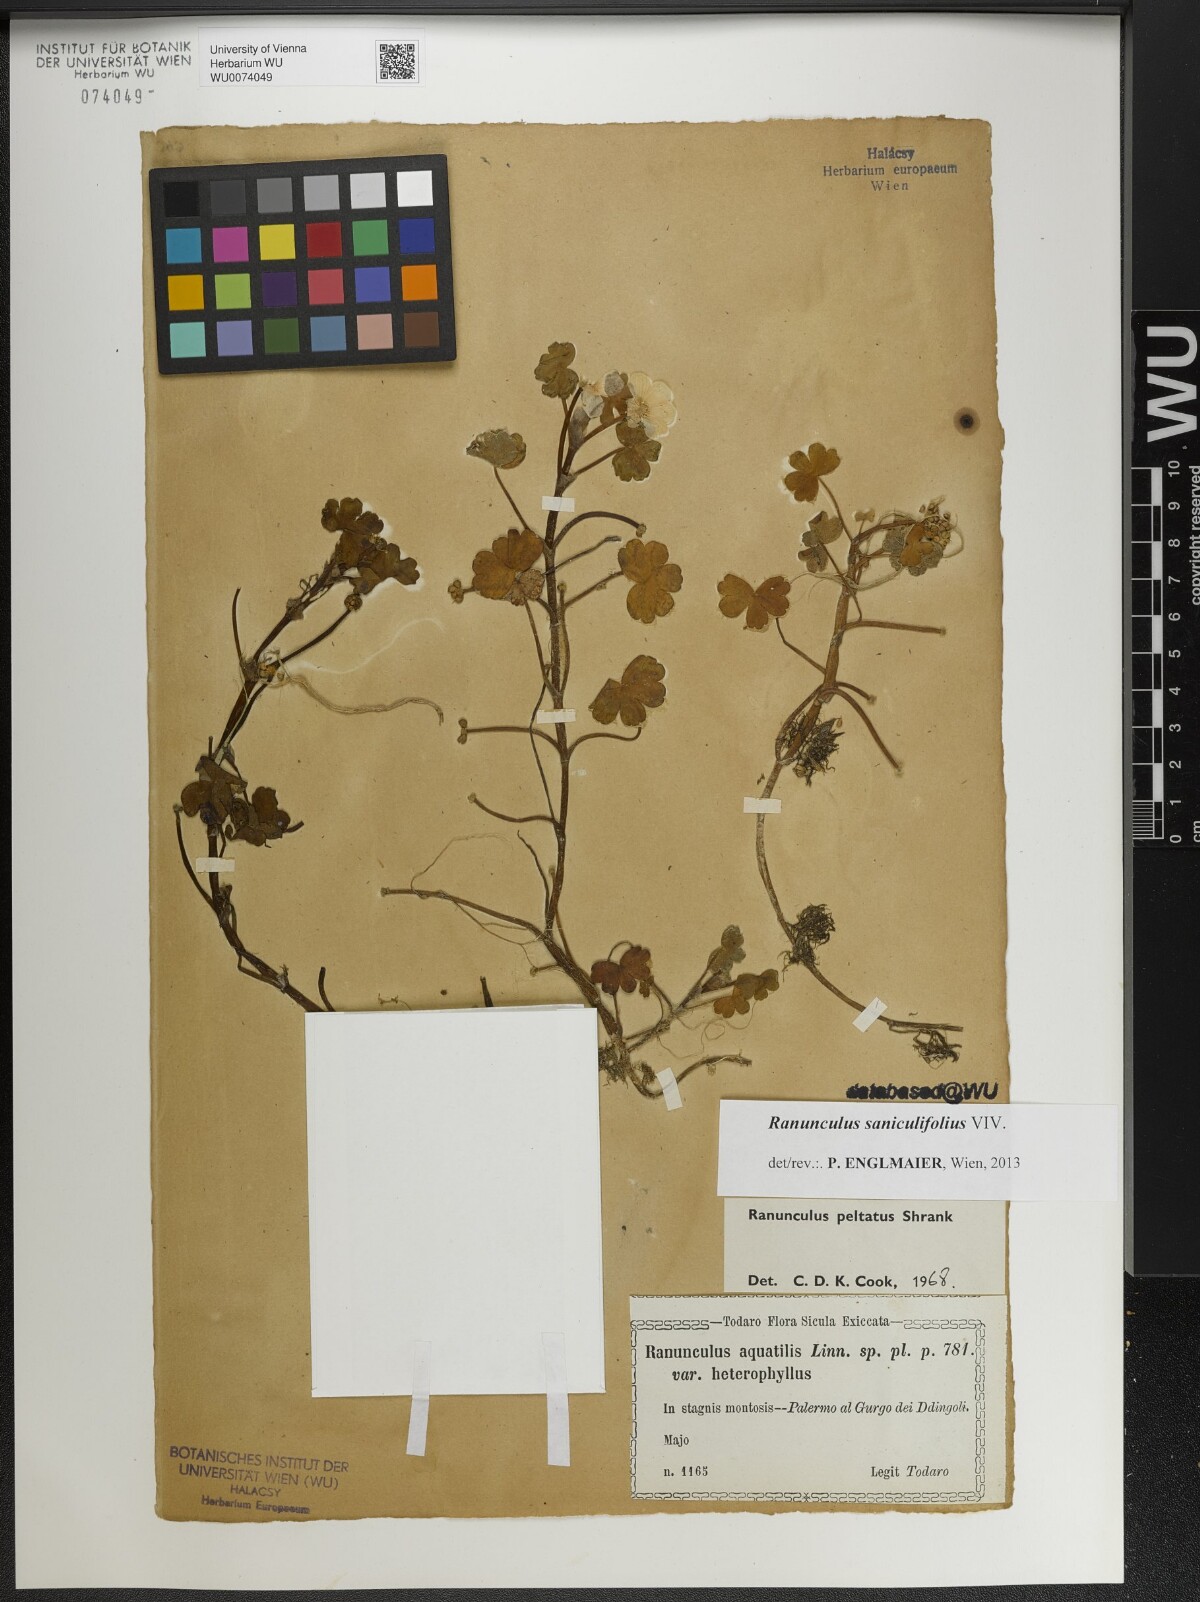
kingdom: Plantae
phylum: Tracheophyta
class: Magnoliopsida
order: Ranunculales
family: Ranunculaceae
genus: Ranunculus
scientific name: Ranunculus peltatus
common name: Pond water-crowfoot
